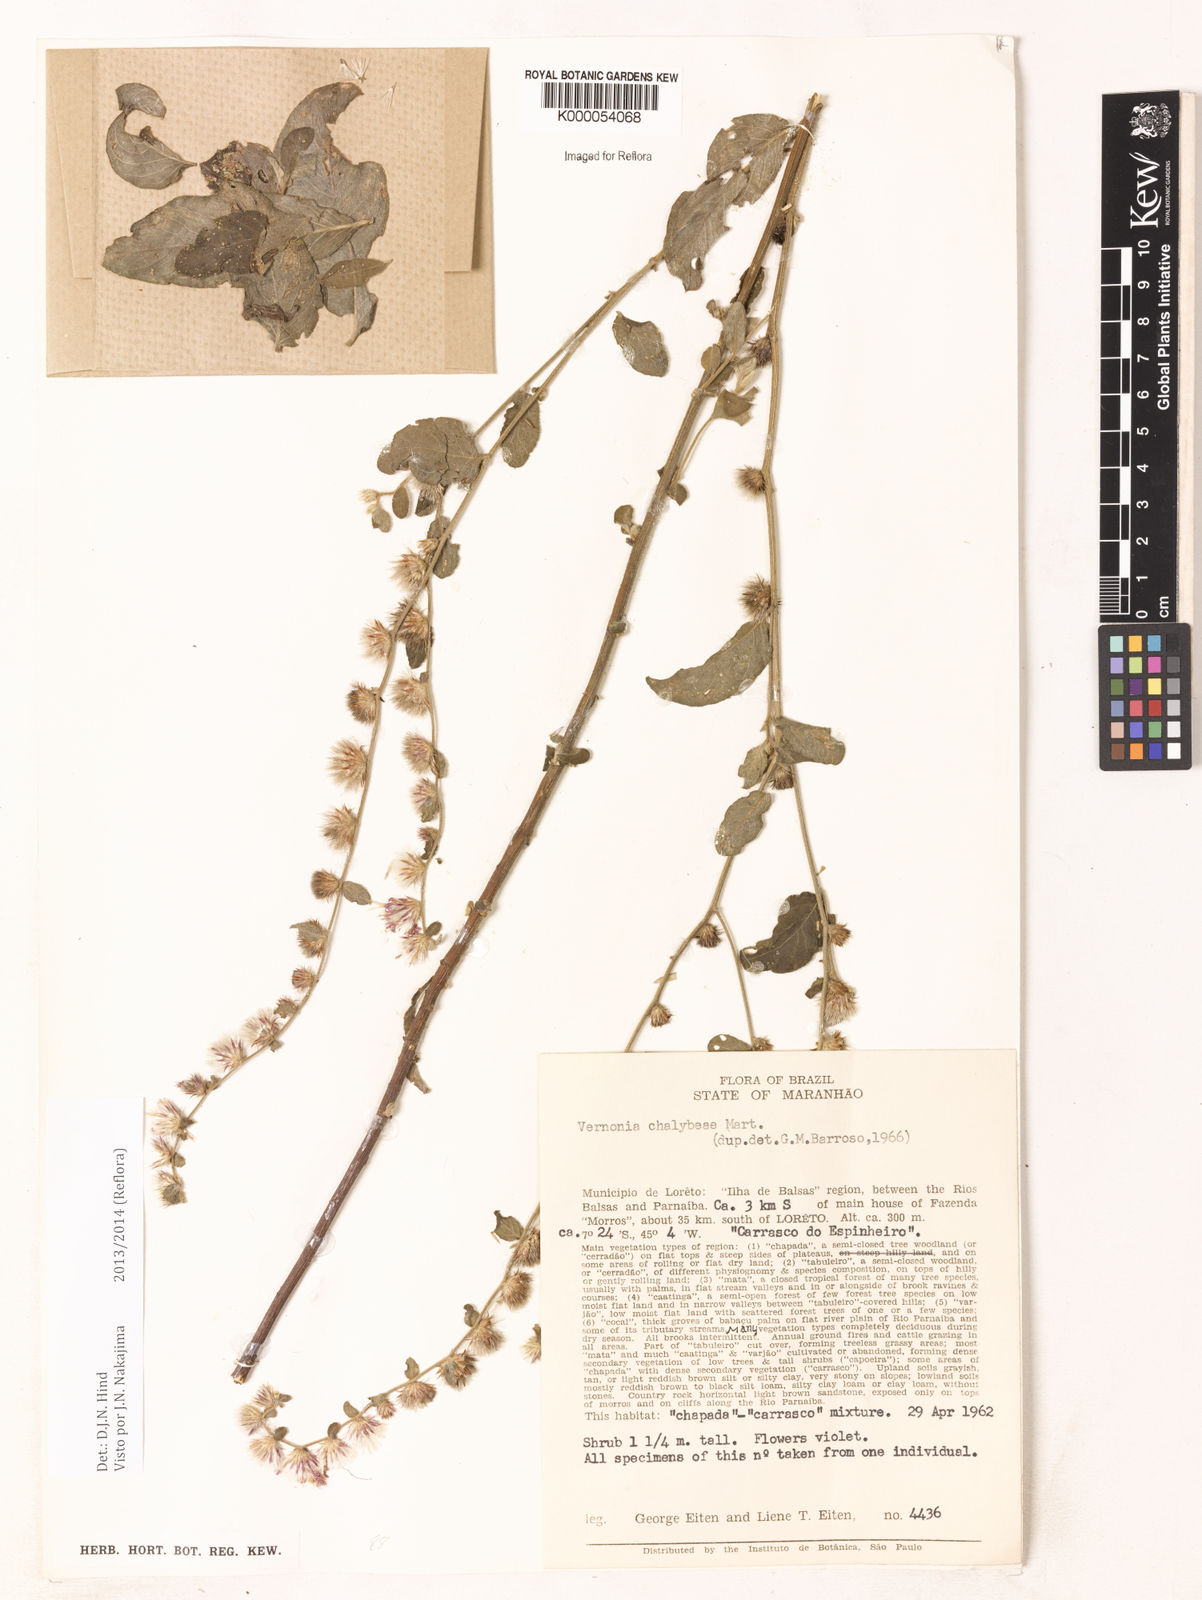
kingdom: Plantae
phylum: Tracheophyta
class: Magnoliopsida
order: Asterales
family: Asteraceae
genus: Lepidaploa
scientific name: Lepidaploa chalybaea
